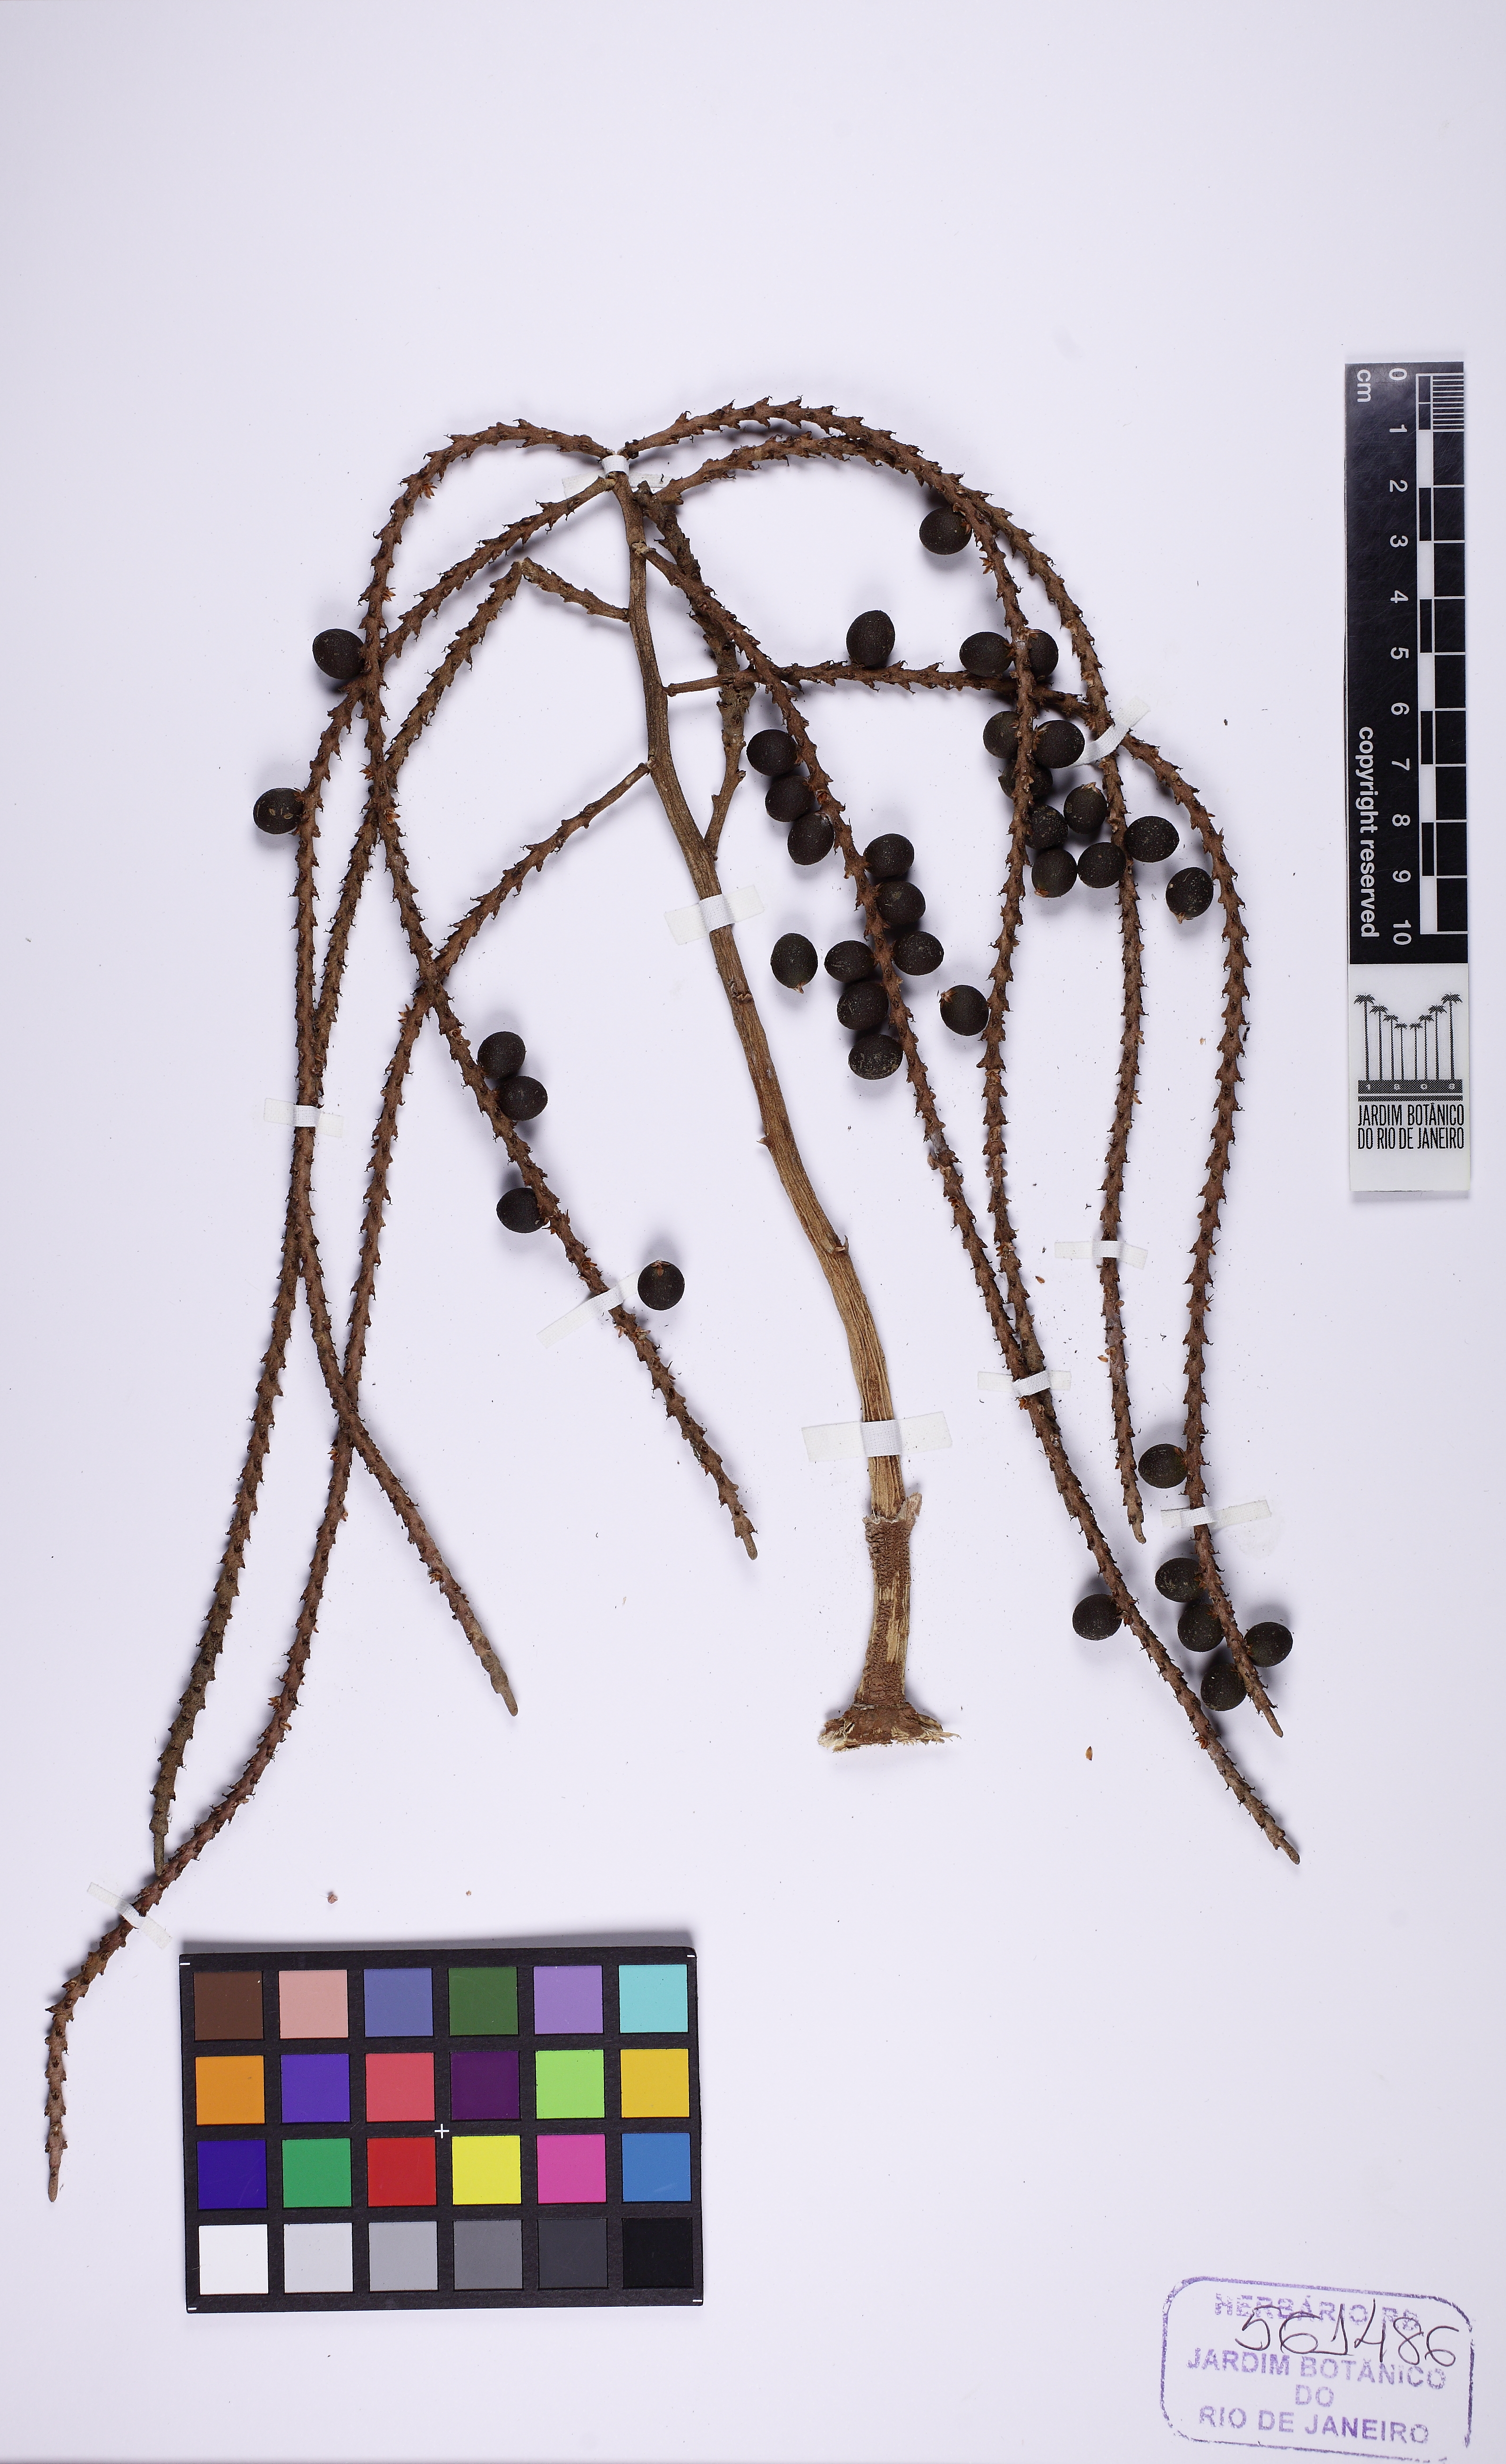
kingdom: Plantae
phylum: Tracheophyta
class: Liliopsida
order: Arecales
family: Arecaceae
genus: Geonoma
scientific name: Geonoma schottiana
